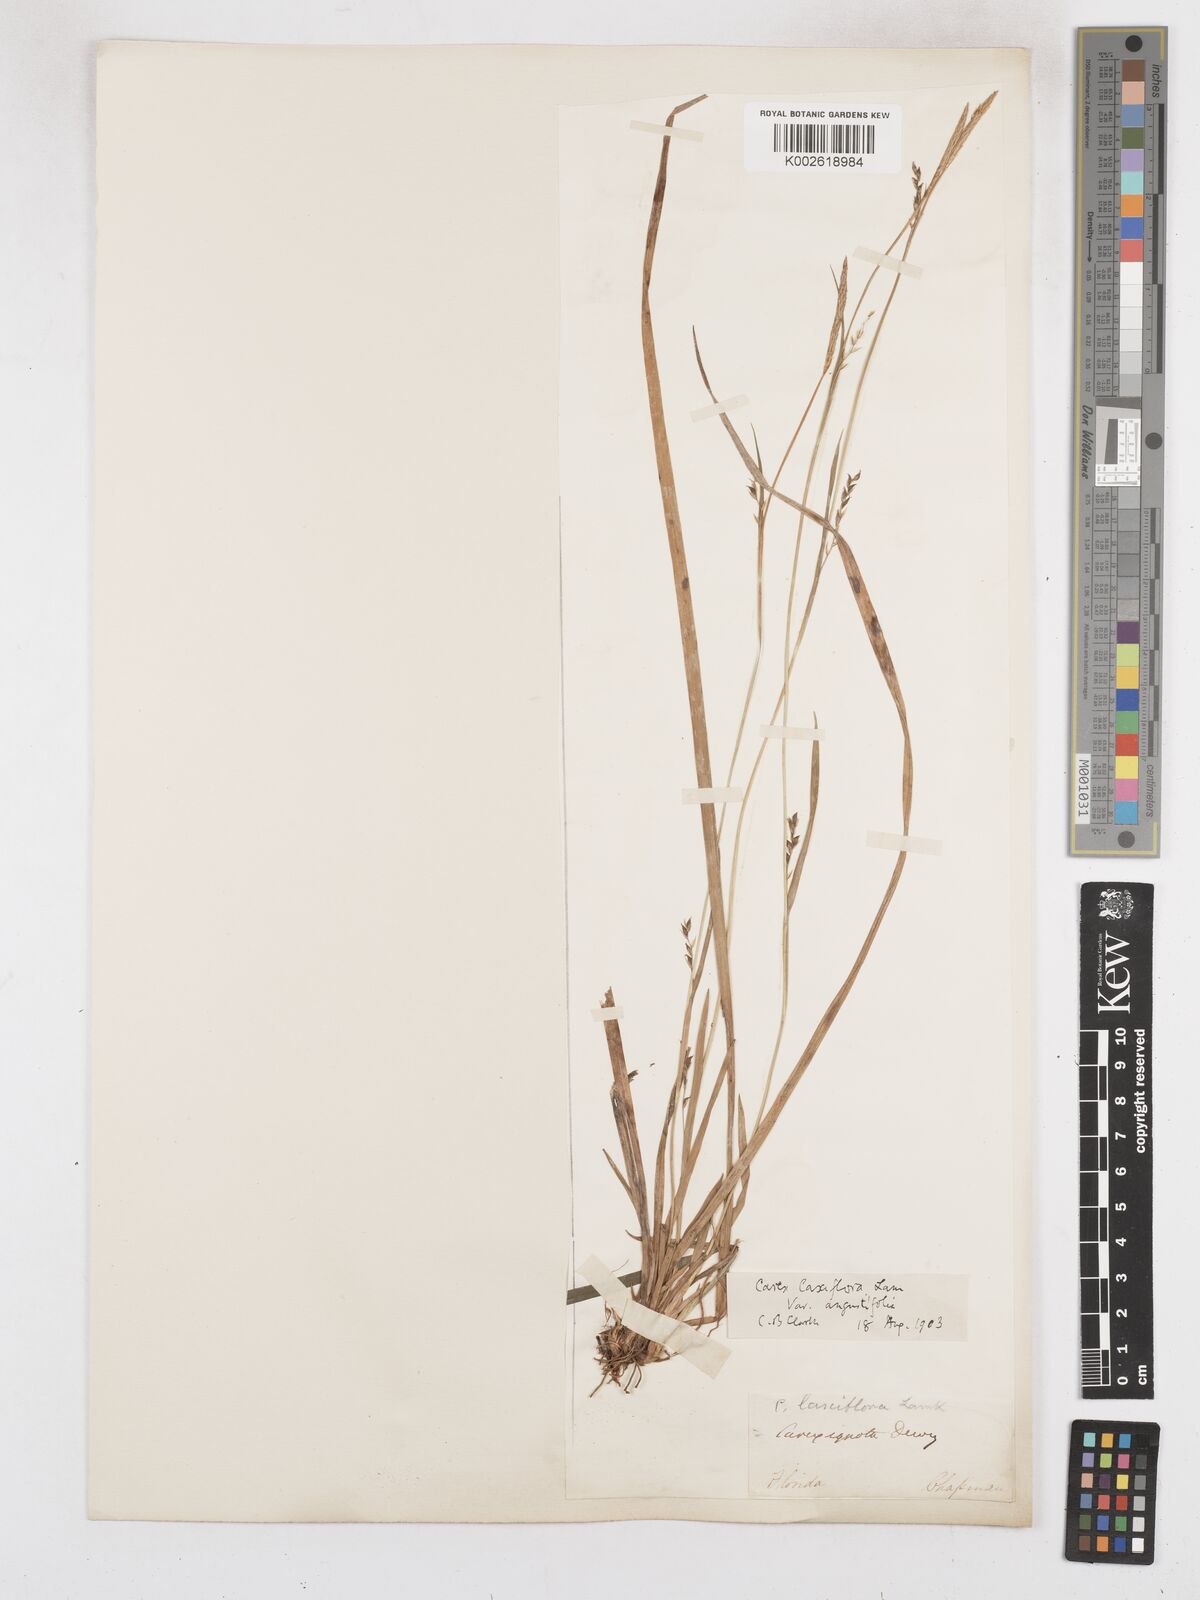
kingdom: Plantae
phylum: Tracheophyta
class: Liliopsida
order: Poales
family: Cyperaceae
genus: Carex
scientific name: Carex striatula
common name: Lined sedge
